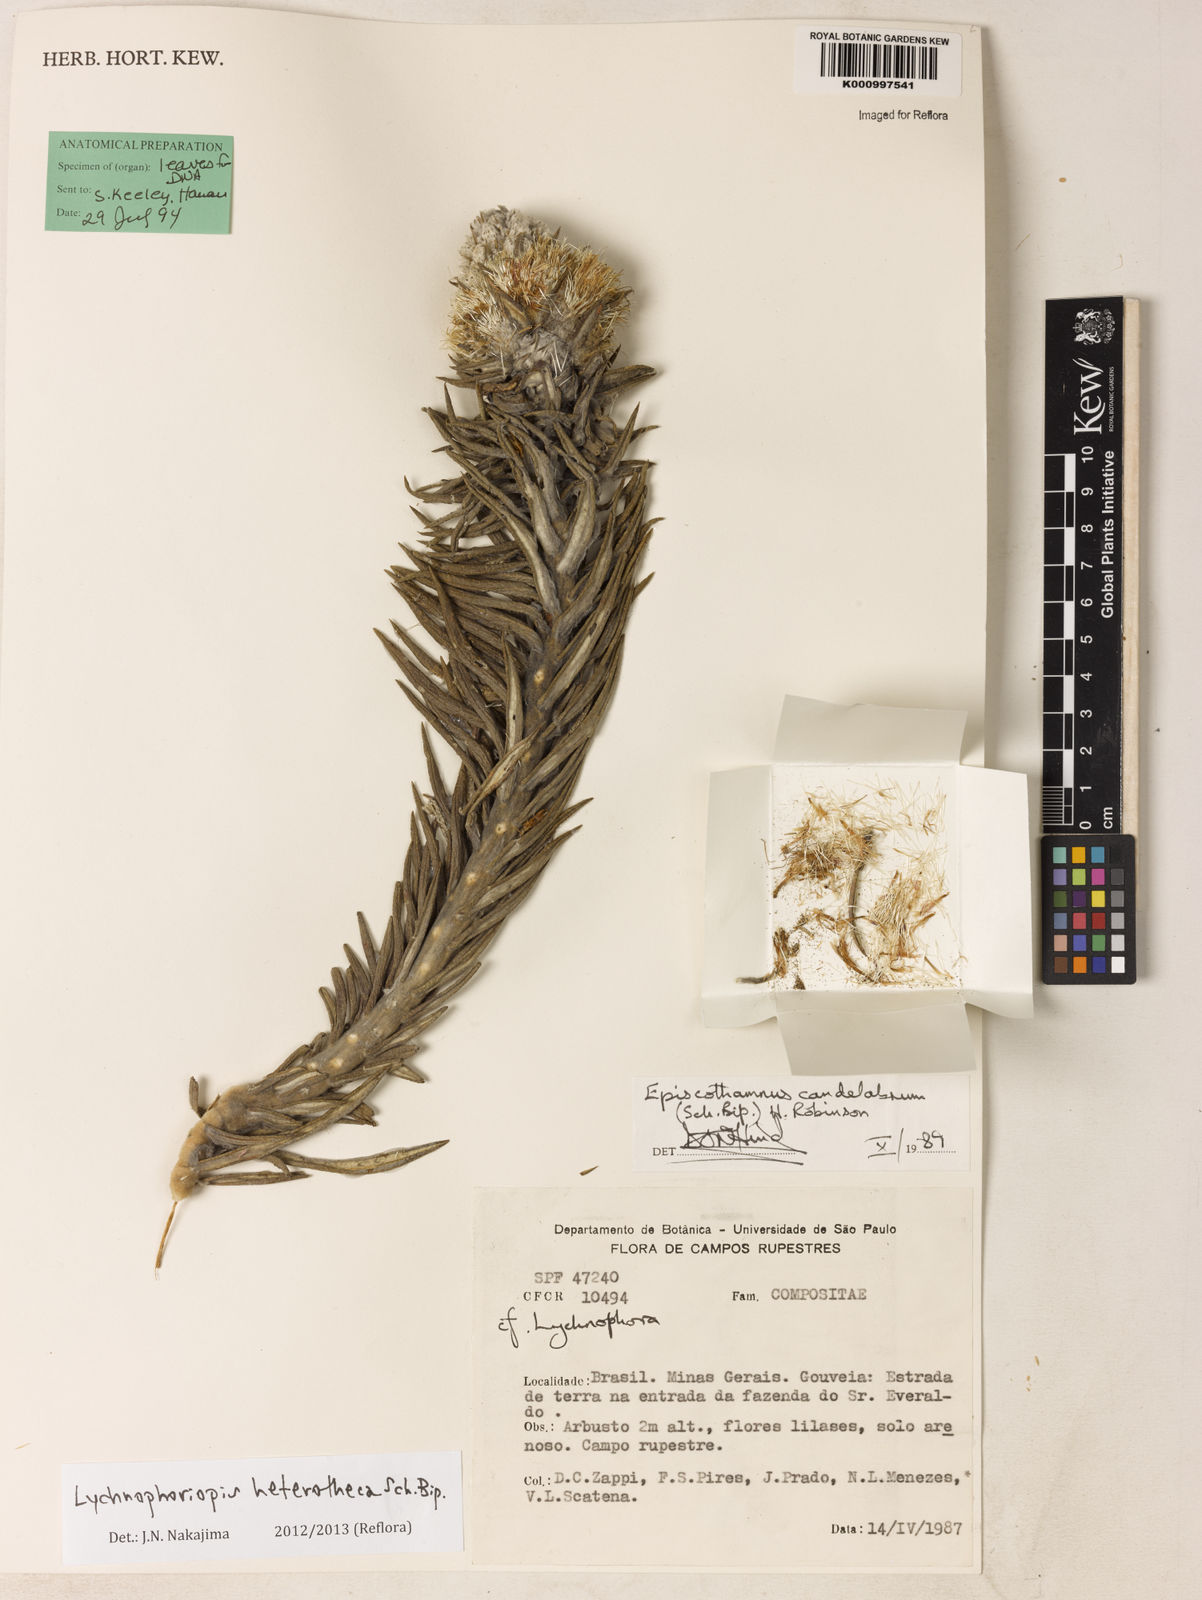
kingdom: Plantae
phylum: Tracheophyta
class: Magnoliopsida
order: Asterales
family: Asteraceae
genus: Lychnophora
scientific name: Lychnophora candelabrum
